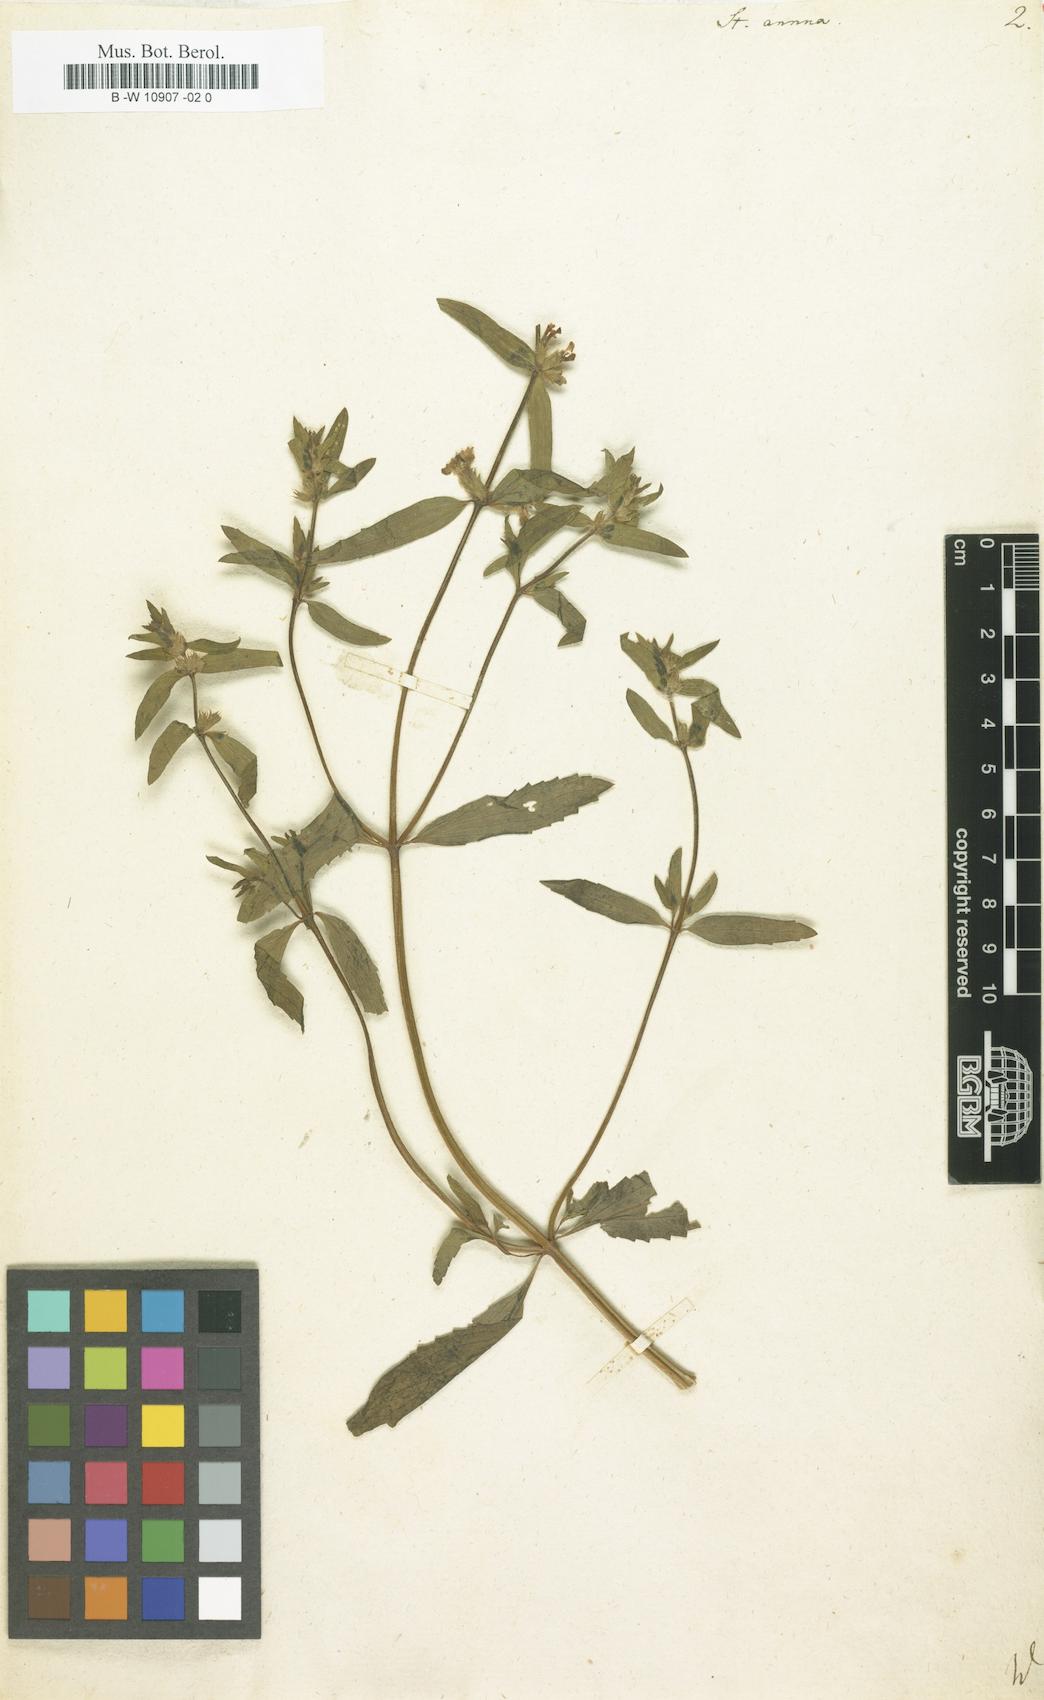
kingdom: Plantae
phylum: Tracheophyta
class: Magnoliopsida
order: Lamiales
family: Lamiaceae
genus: Stachys
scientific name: Stachys annua
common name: Annual yellow-woundwort
